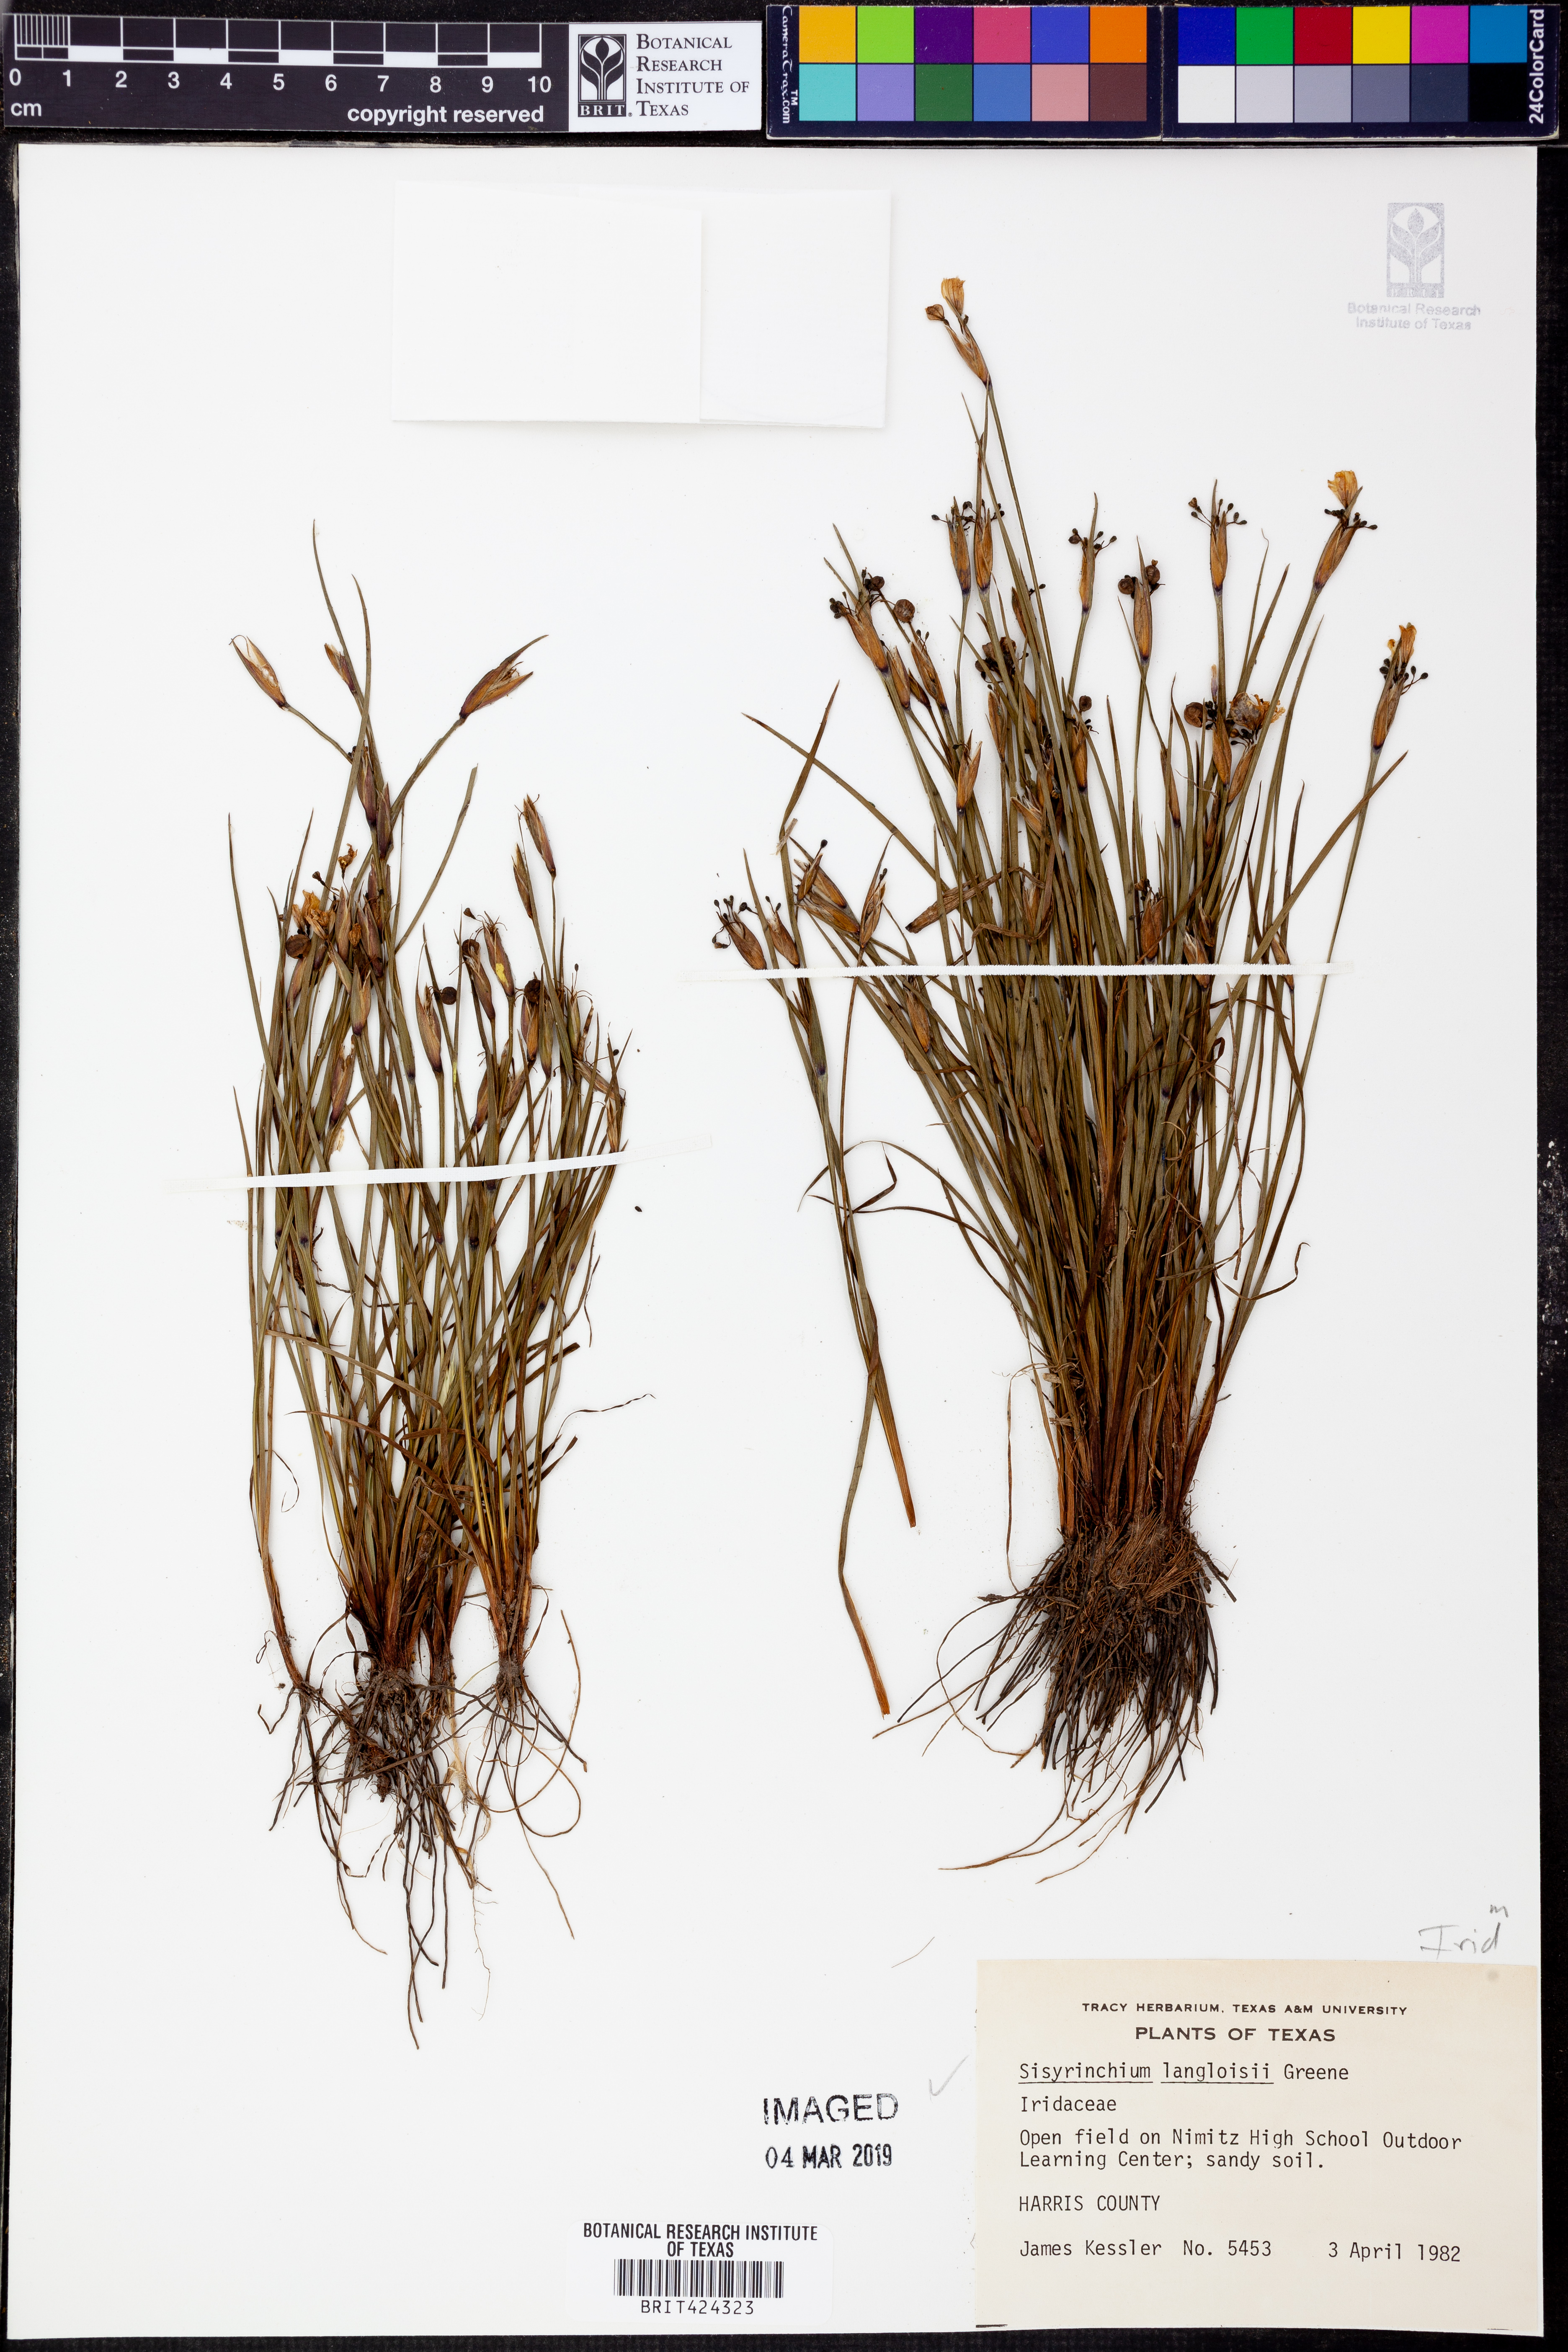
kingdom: Plantae
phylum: Tracheophyta
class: Liliopsida
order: Asparagales
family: Iridaceae
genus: Sisyrinchium
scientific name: Sisyrinchium langloisii
